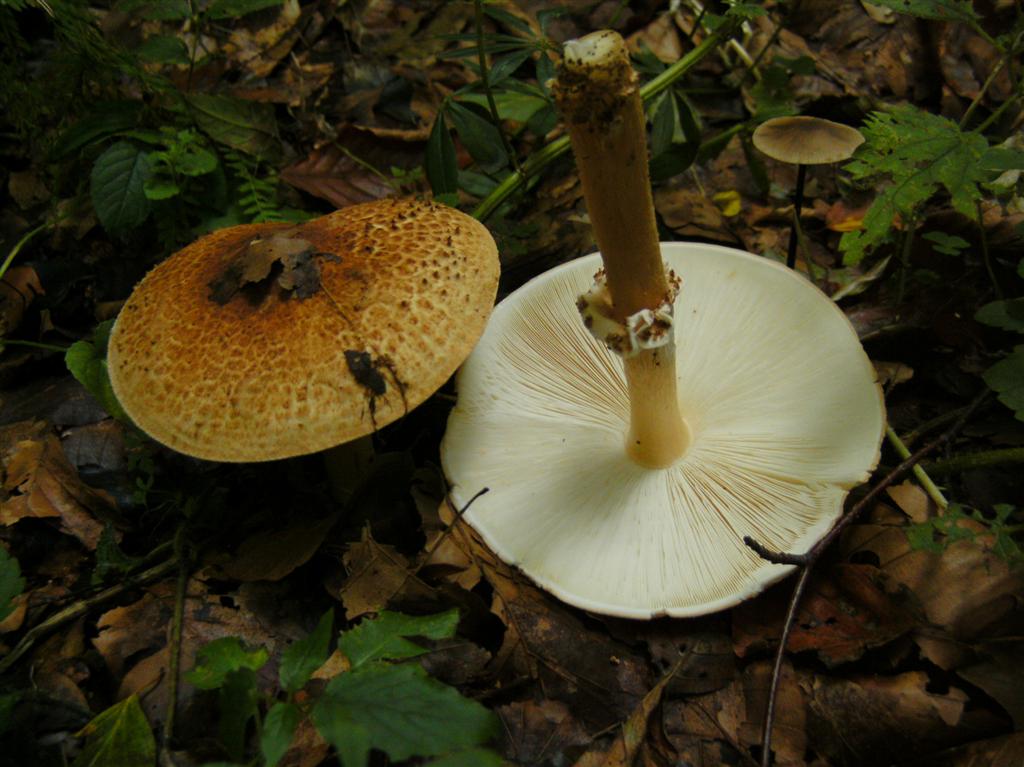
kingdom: Fungi
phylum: Basidiomycota
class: Agaricomycetes
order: Agaricales
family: Agaricaceae
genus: Echinoderma
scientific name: Echinoderma asperum
